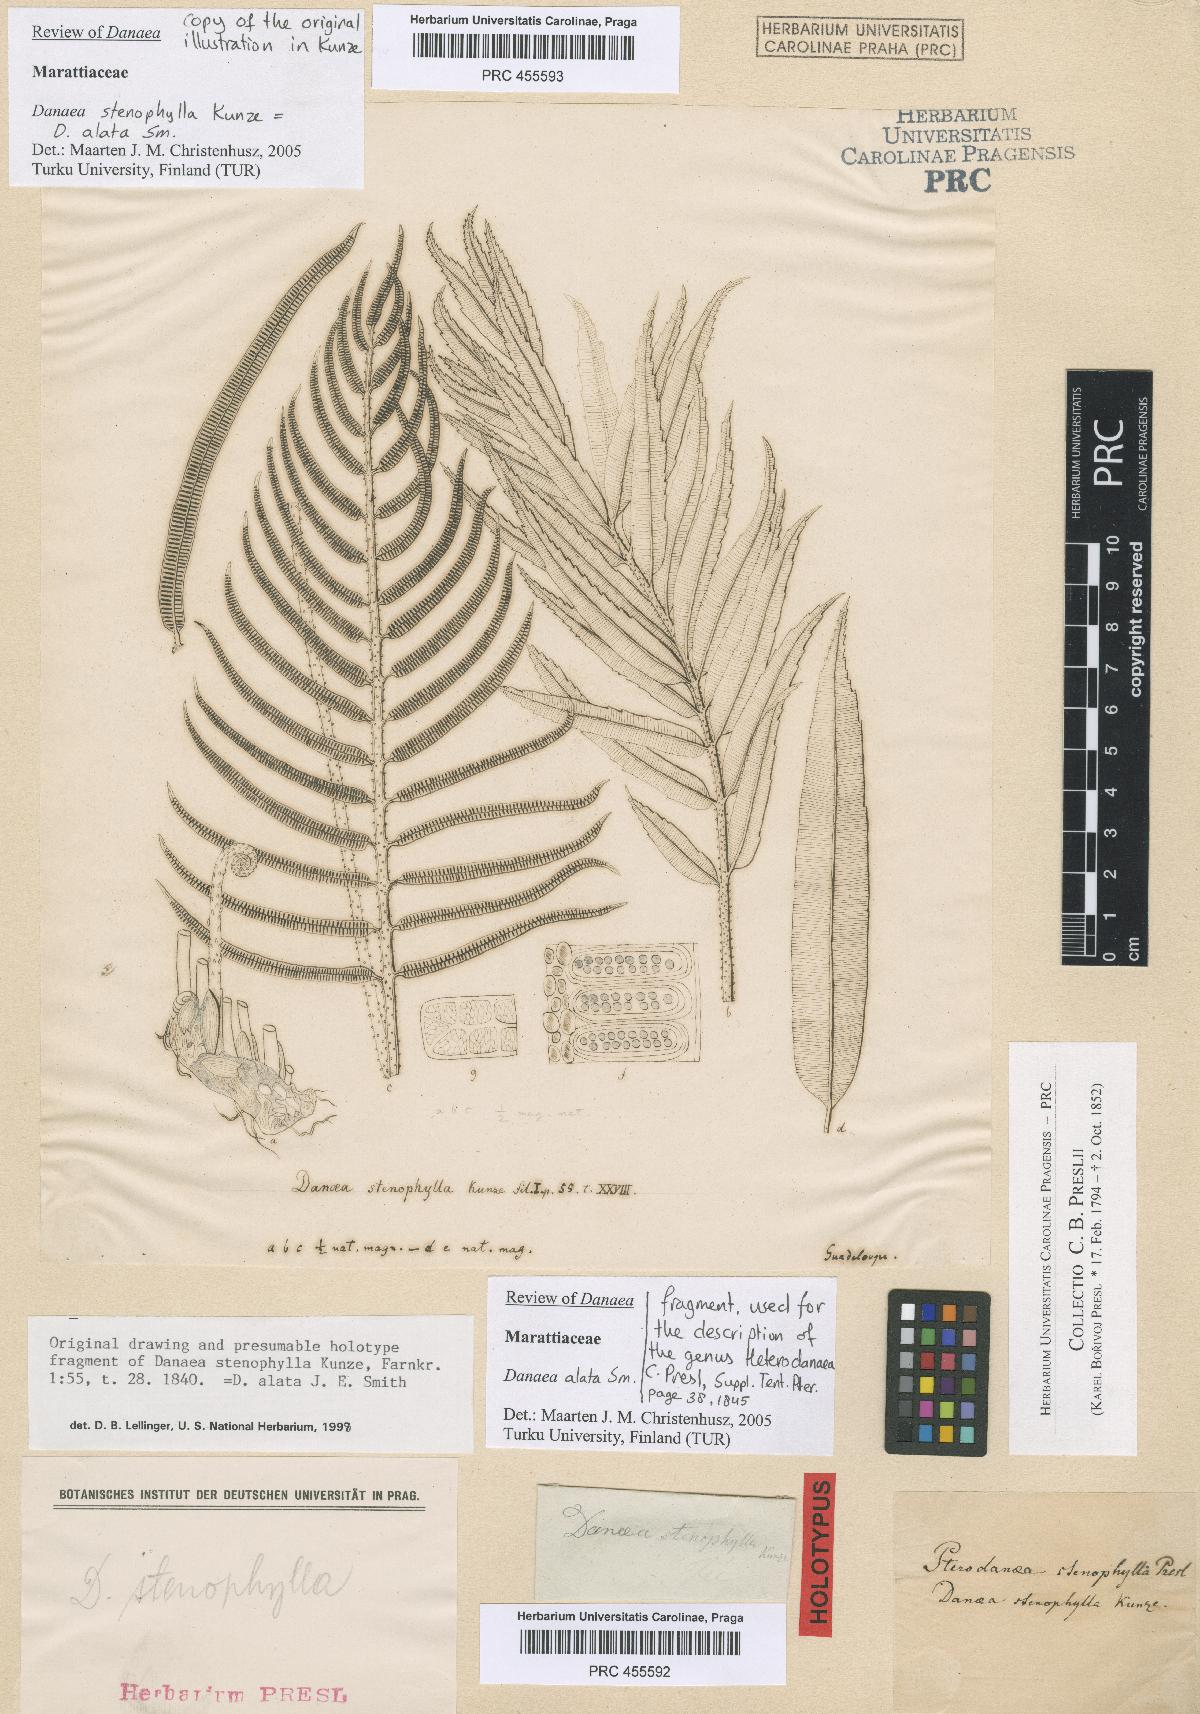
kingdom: Plantae
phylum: Tracheophyta
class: Polypodiopsida
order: Marattiales
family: Marattiaceae
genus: Danaea
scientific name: Danaea alata
